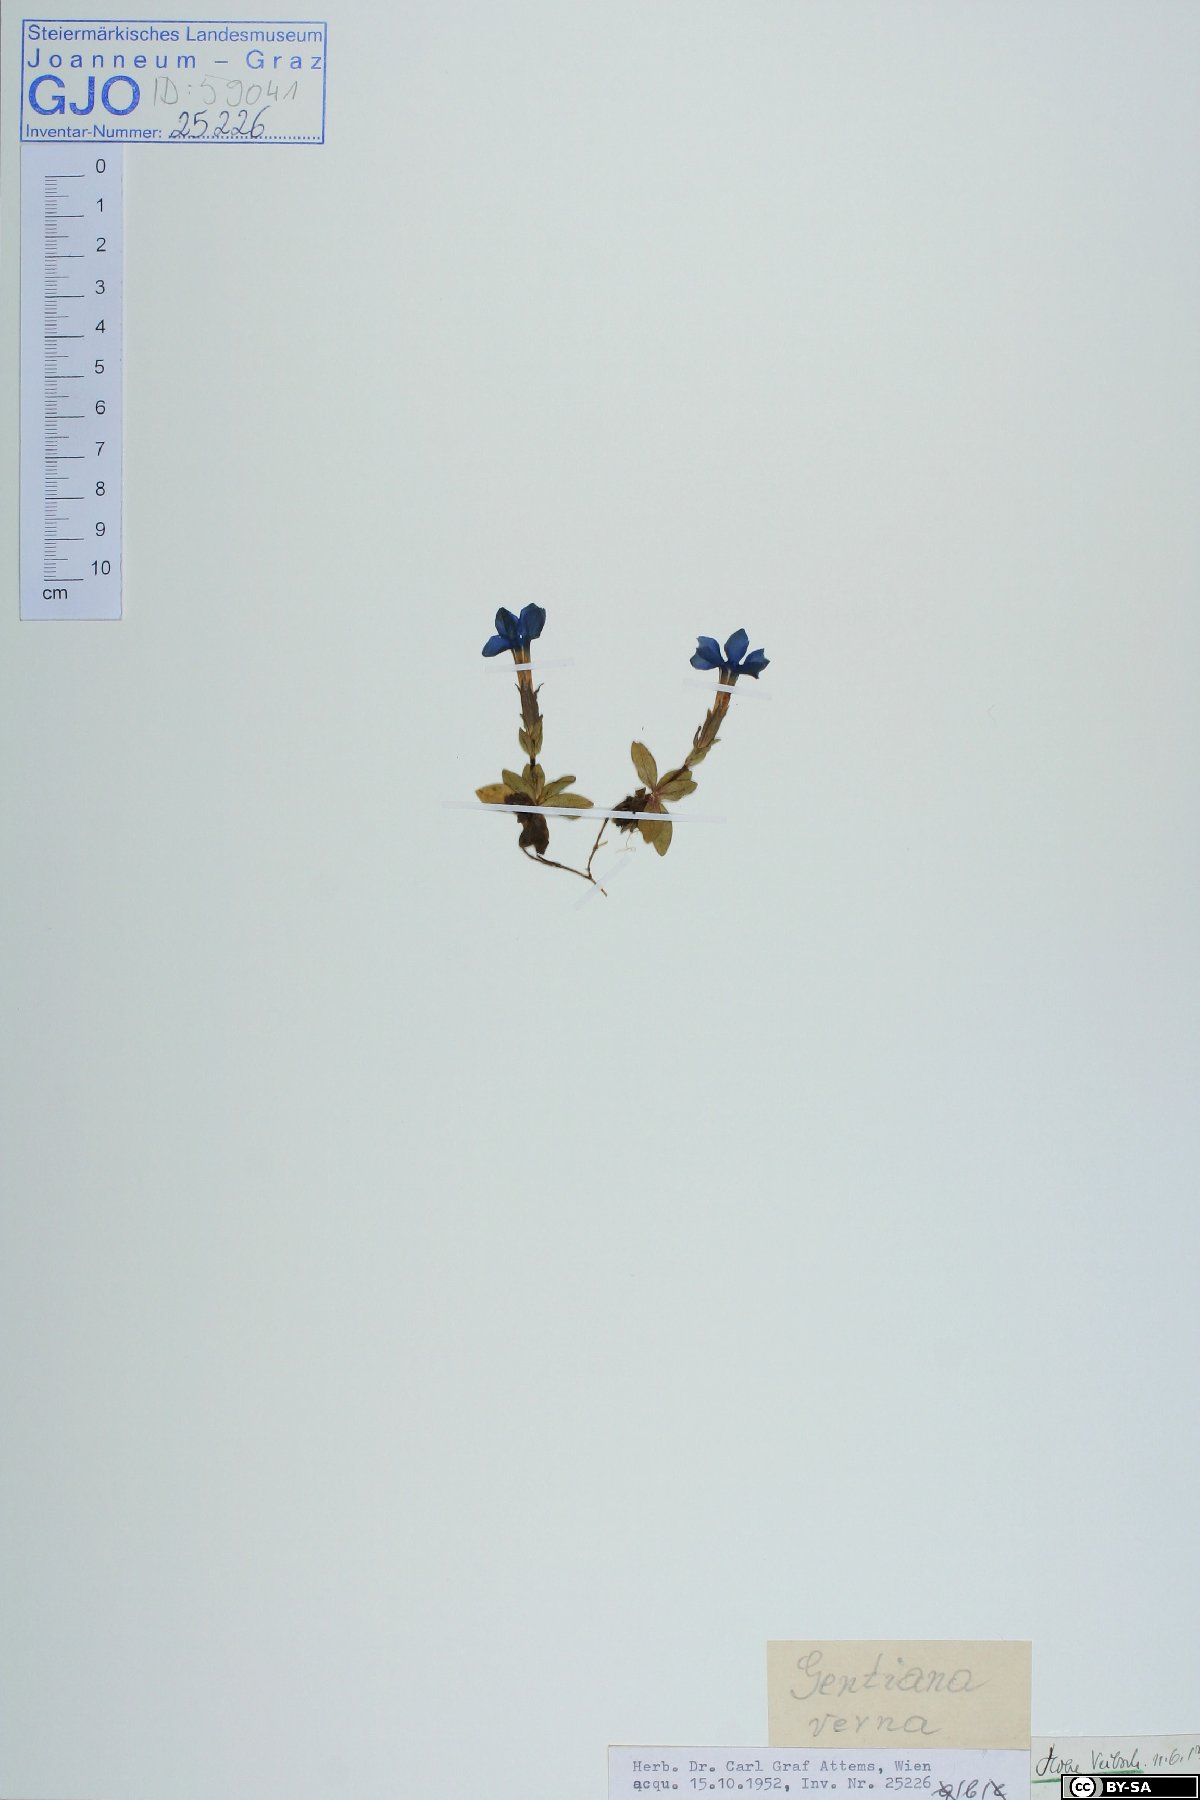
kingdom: Plantae
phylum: Tracheophyta
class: Magnoliopsida
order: Gentianales
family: Gentianaceae
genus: Gentiana
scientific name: Gentiana verna
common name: Spring gentian
